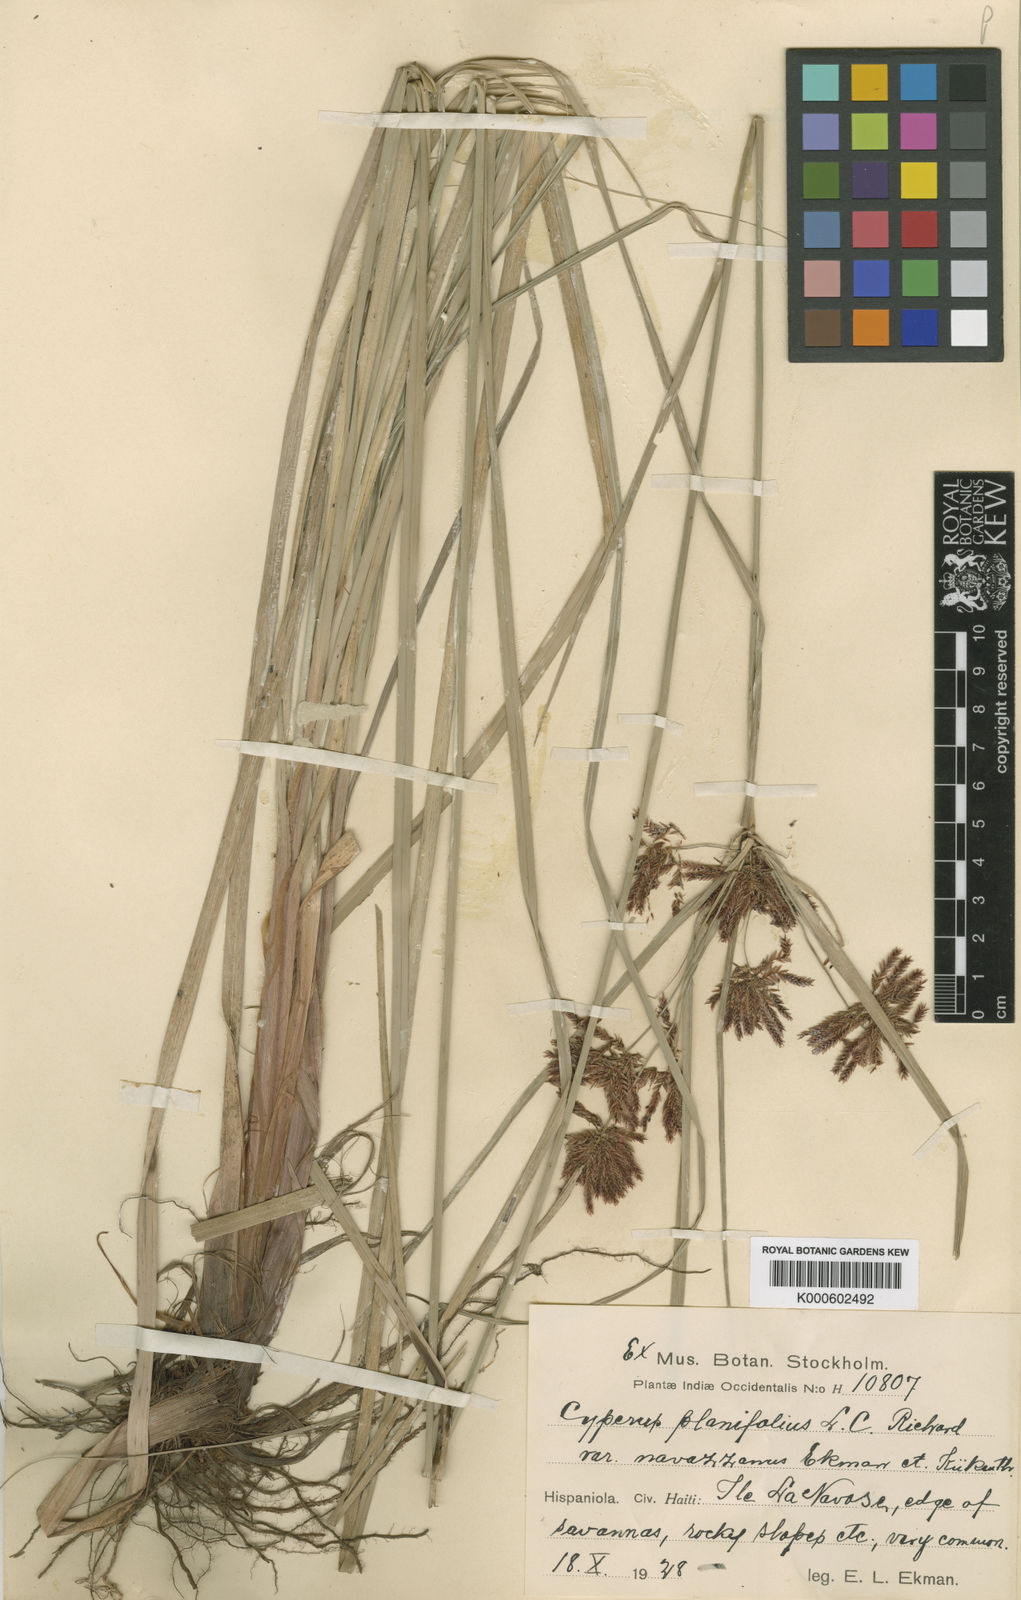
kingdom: Plantae
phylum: Tracheophyta
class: Liliopsida
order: Poales
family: Cyperaceae
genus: Cyperus
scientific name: Cyperus planifolius
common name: Bullgrass
